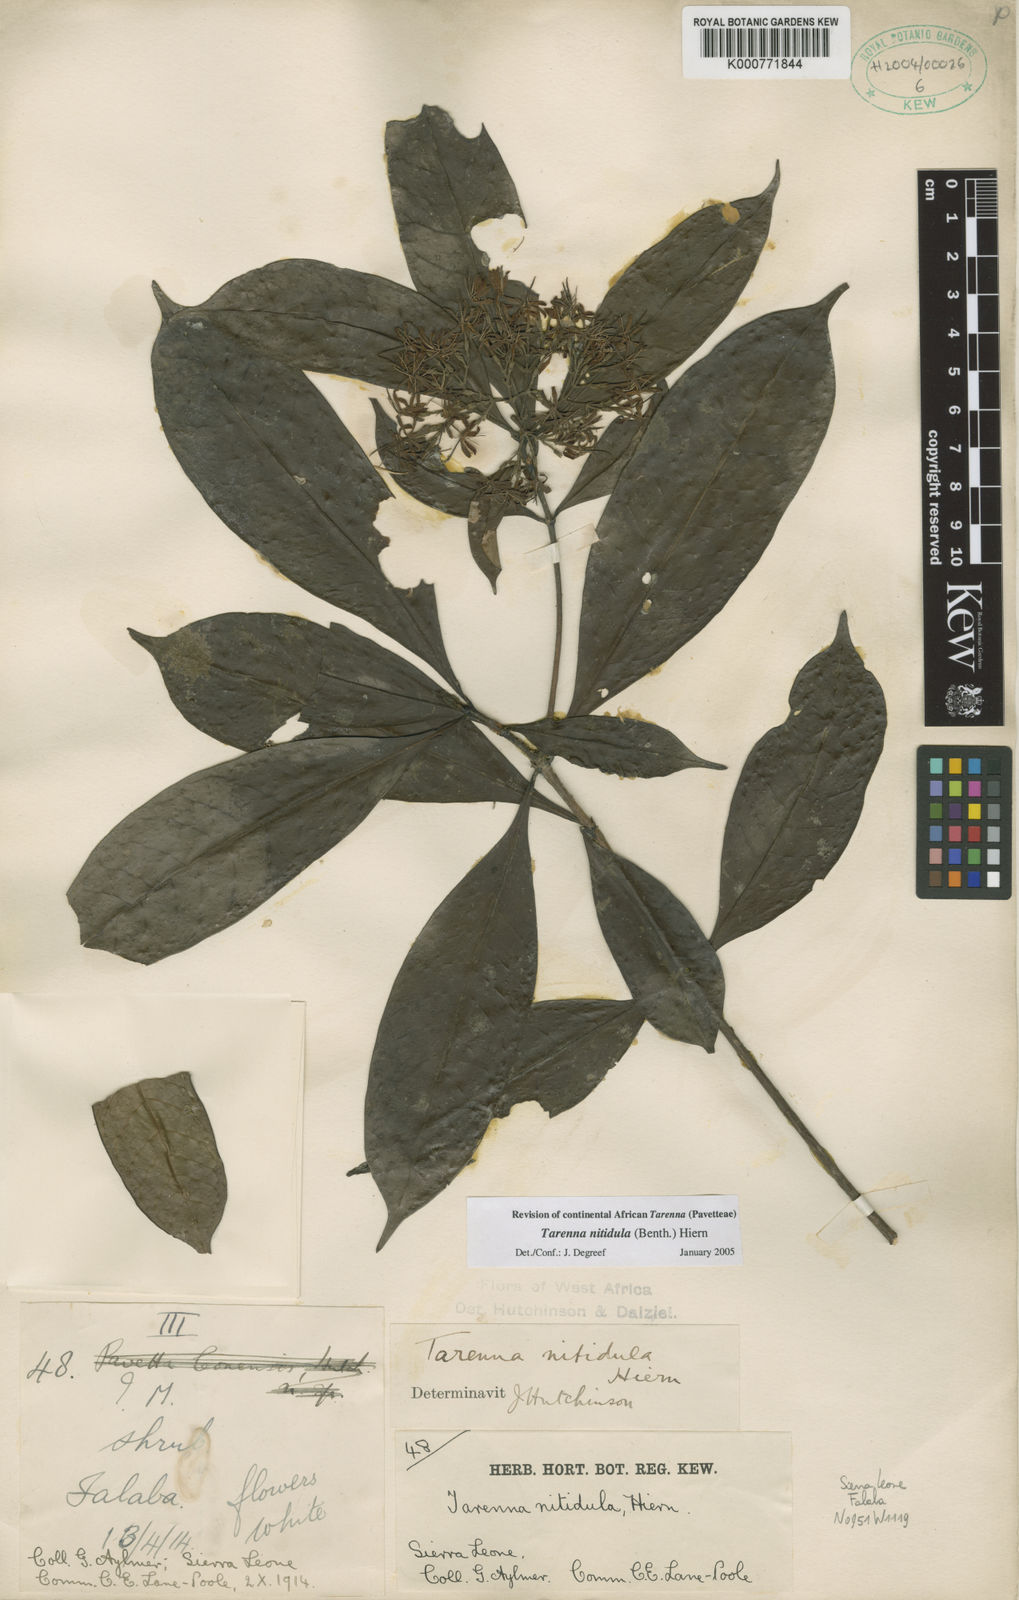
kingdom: Plantae
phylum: Tracheophyta
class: Magnoliopsida
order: Gentianales
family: Rubiaceae
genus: Tarenna
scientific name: Tarenna nitidula
